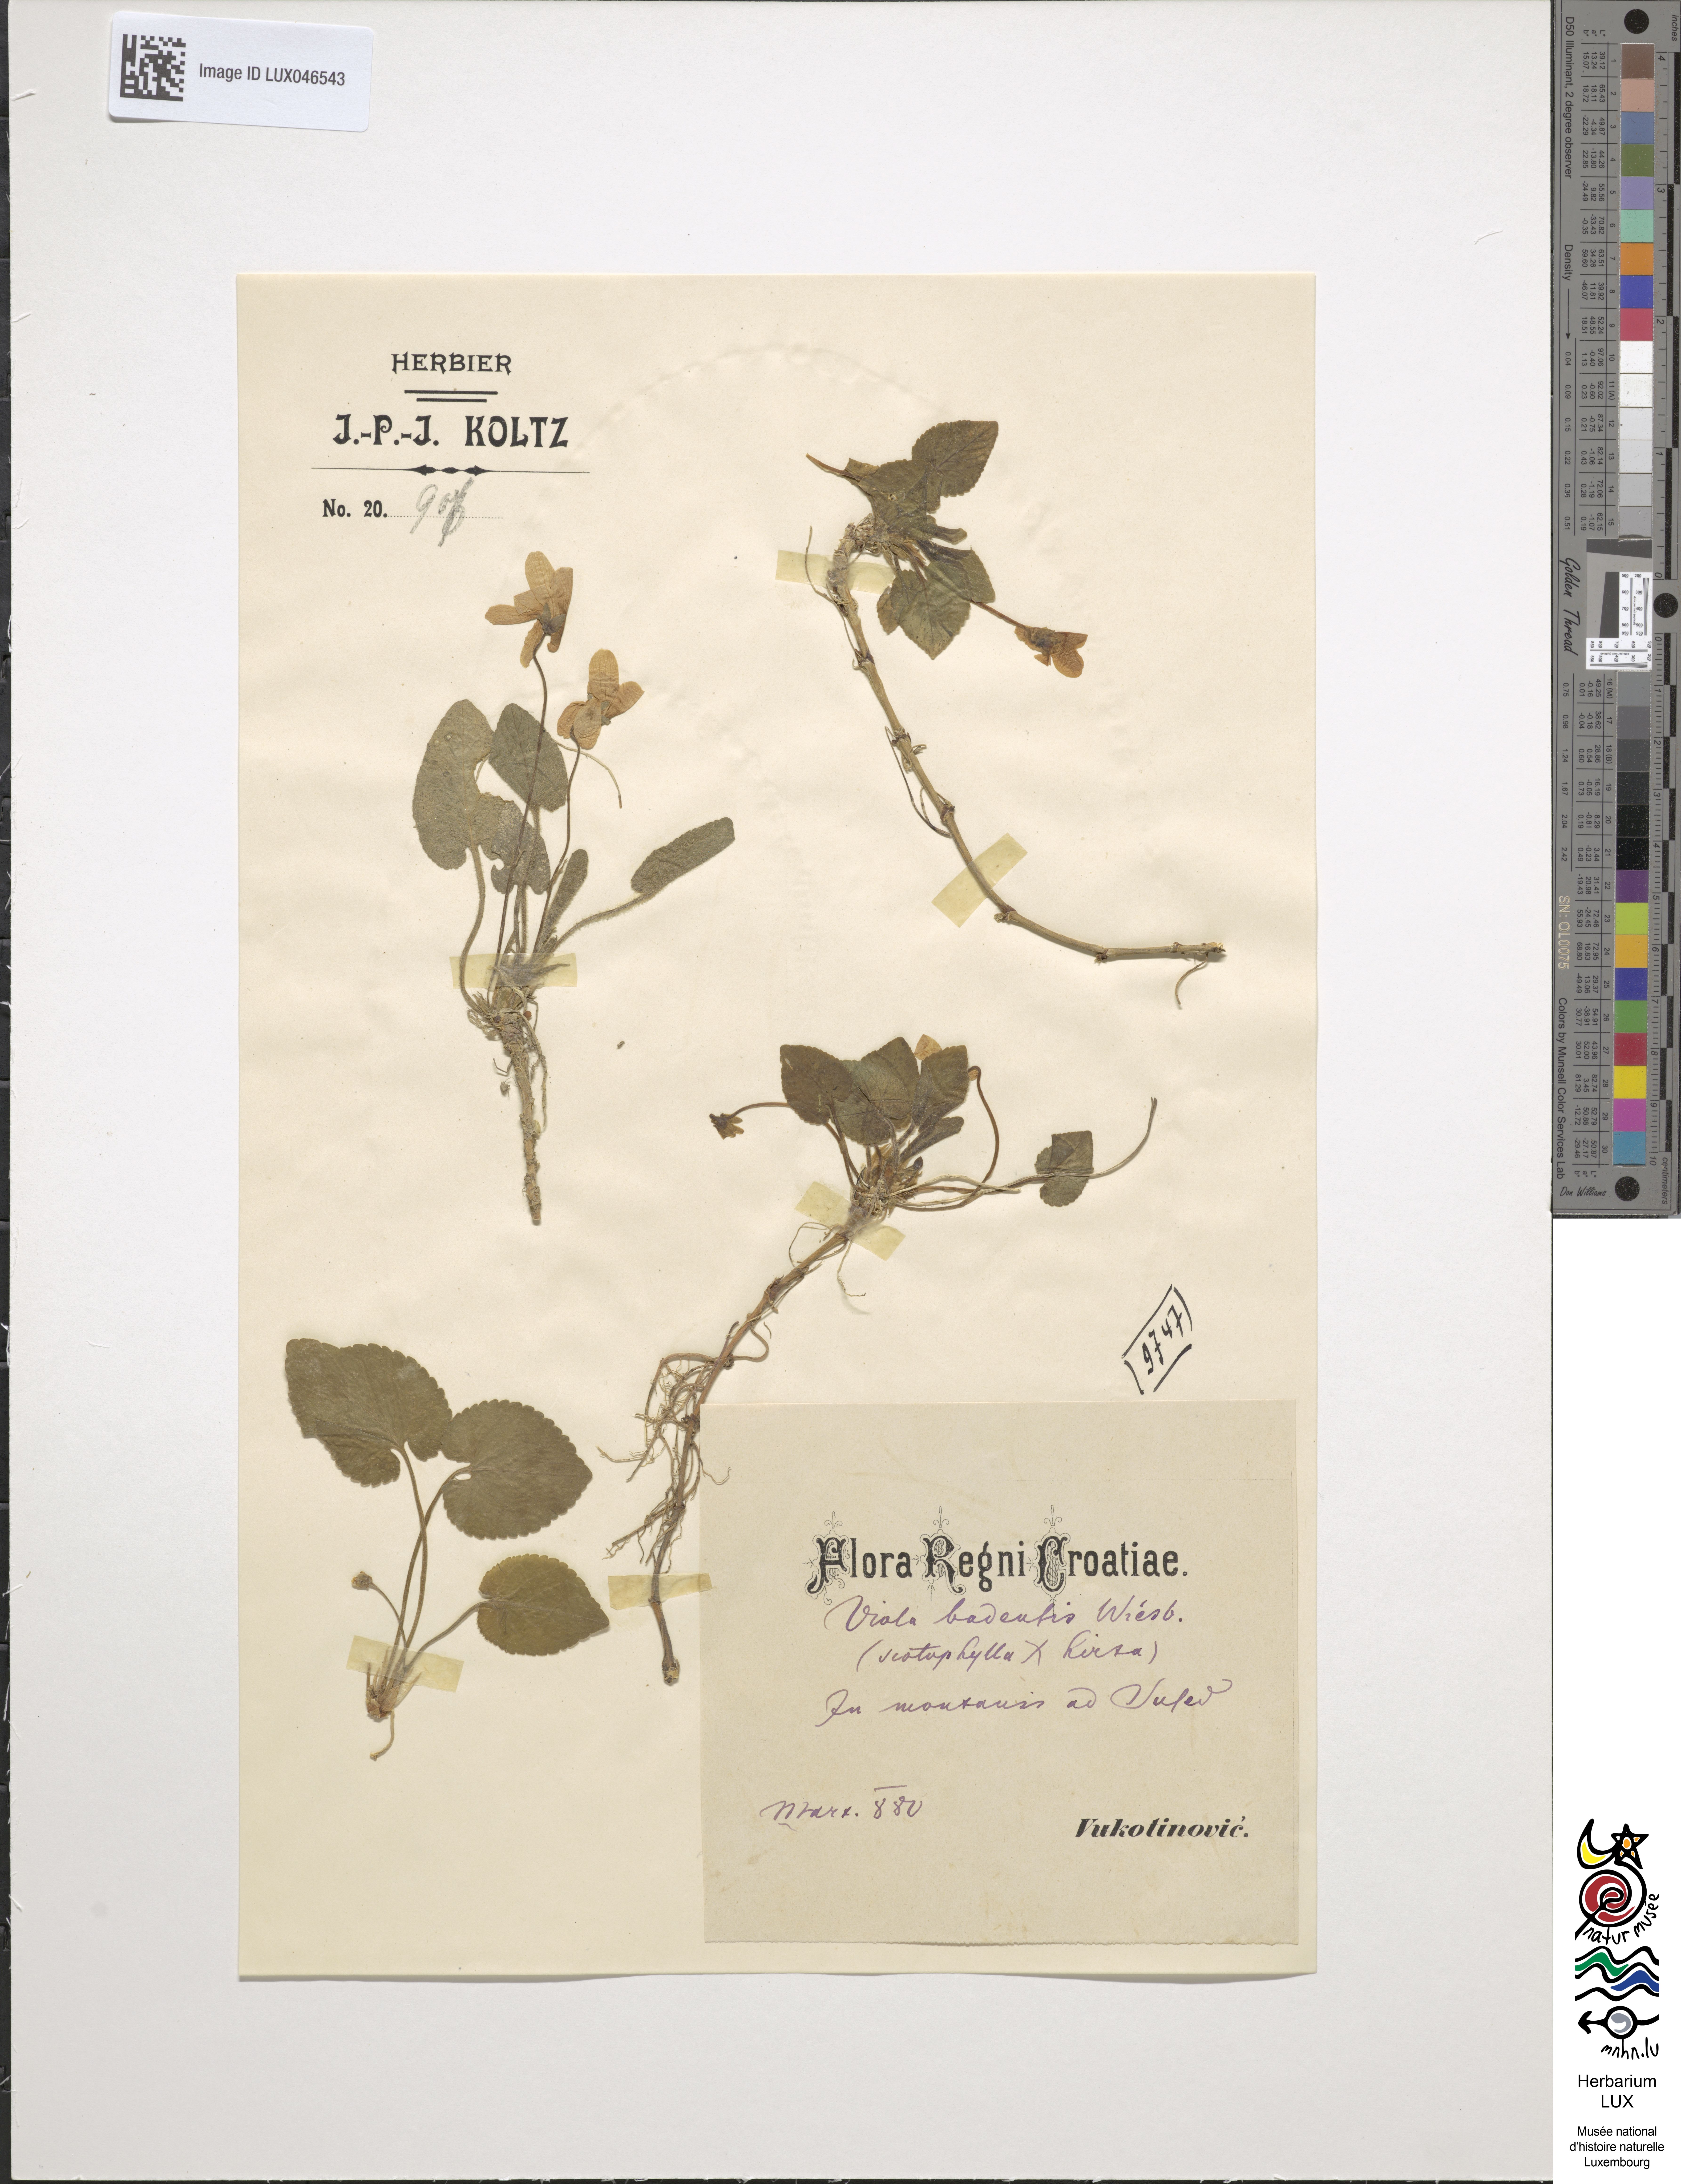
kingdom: Plantae
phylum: Tracheophyta
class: Magnoliopsida
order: Malpighiales
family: Violaceae
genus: Viola
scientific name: Viola adulterina
